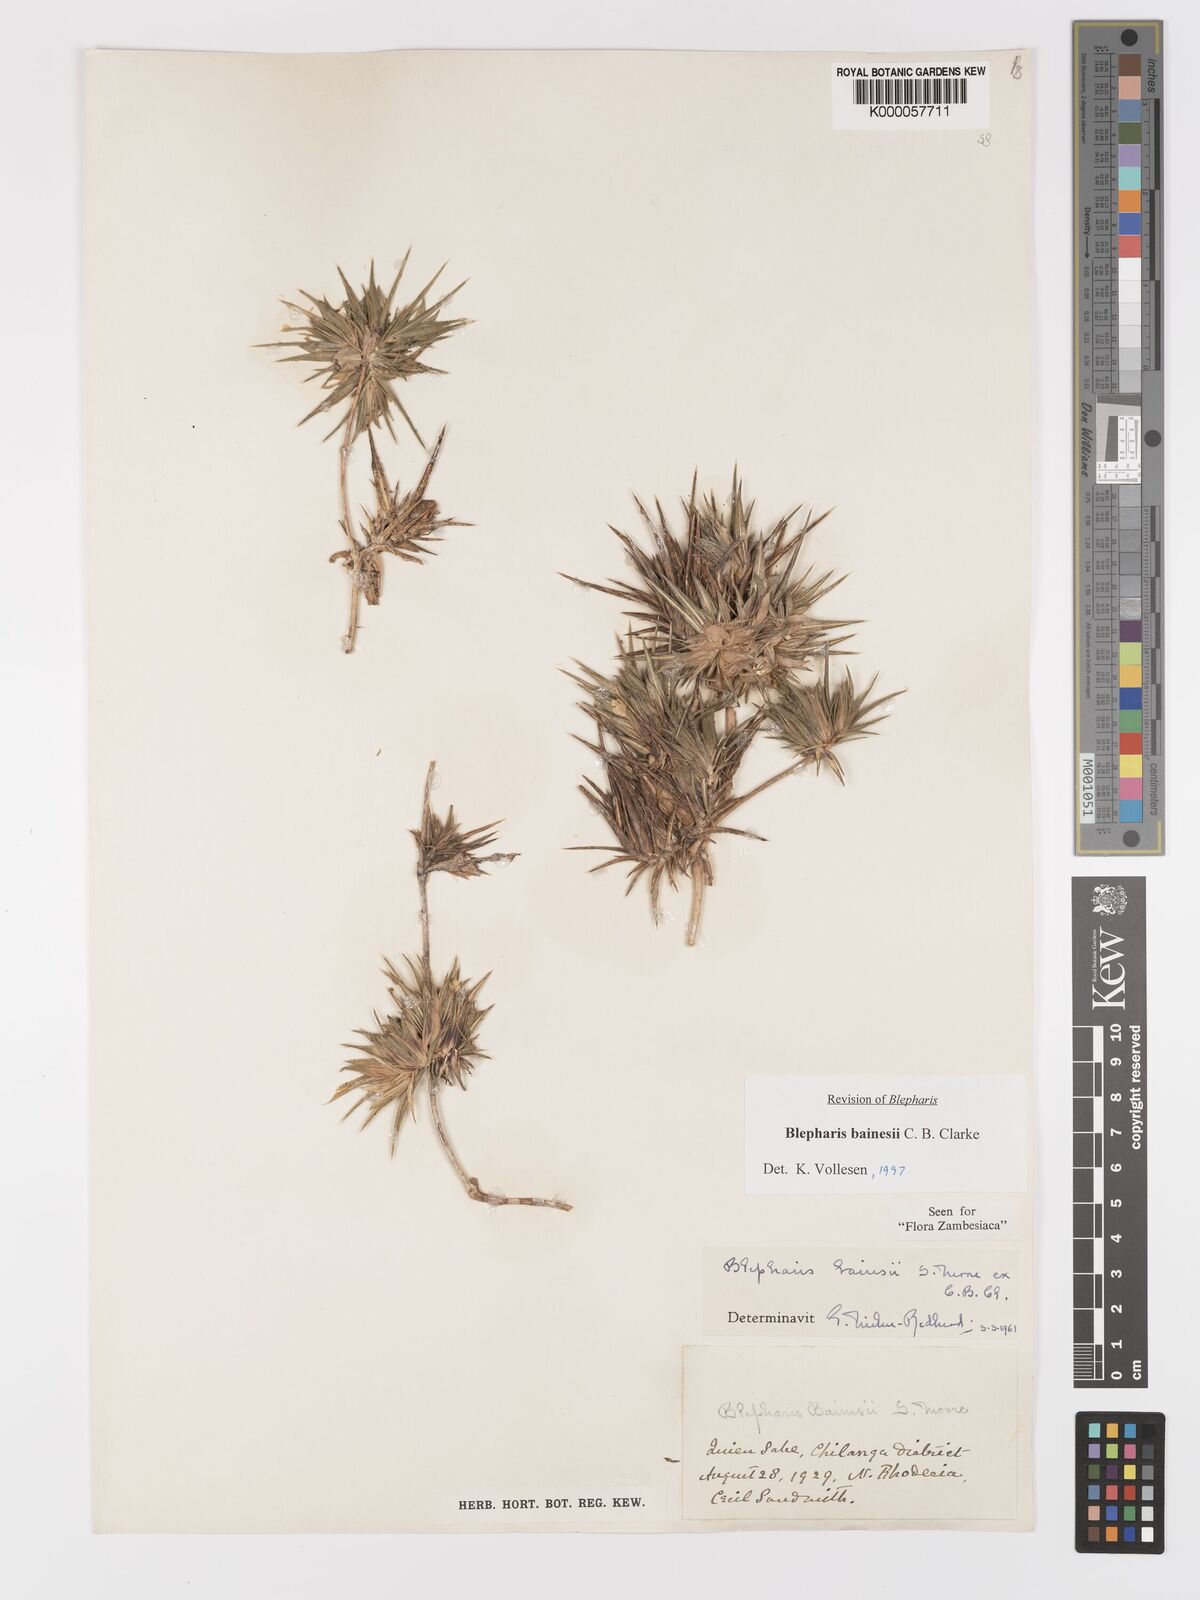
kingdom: Plantae
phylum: Tracheophyta
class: Magnoliopsida
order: Lamiales
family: Acanthaceae
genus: Blepharis
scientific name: Blepharis bainesii
